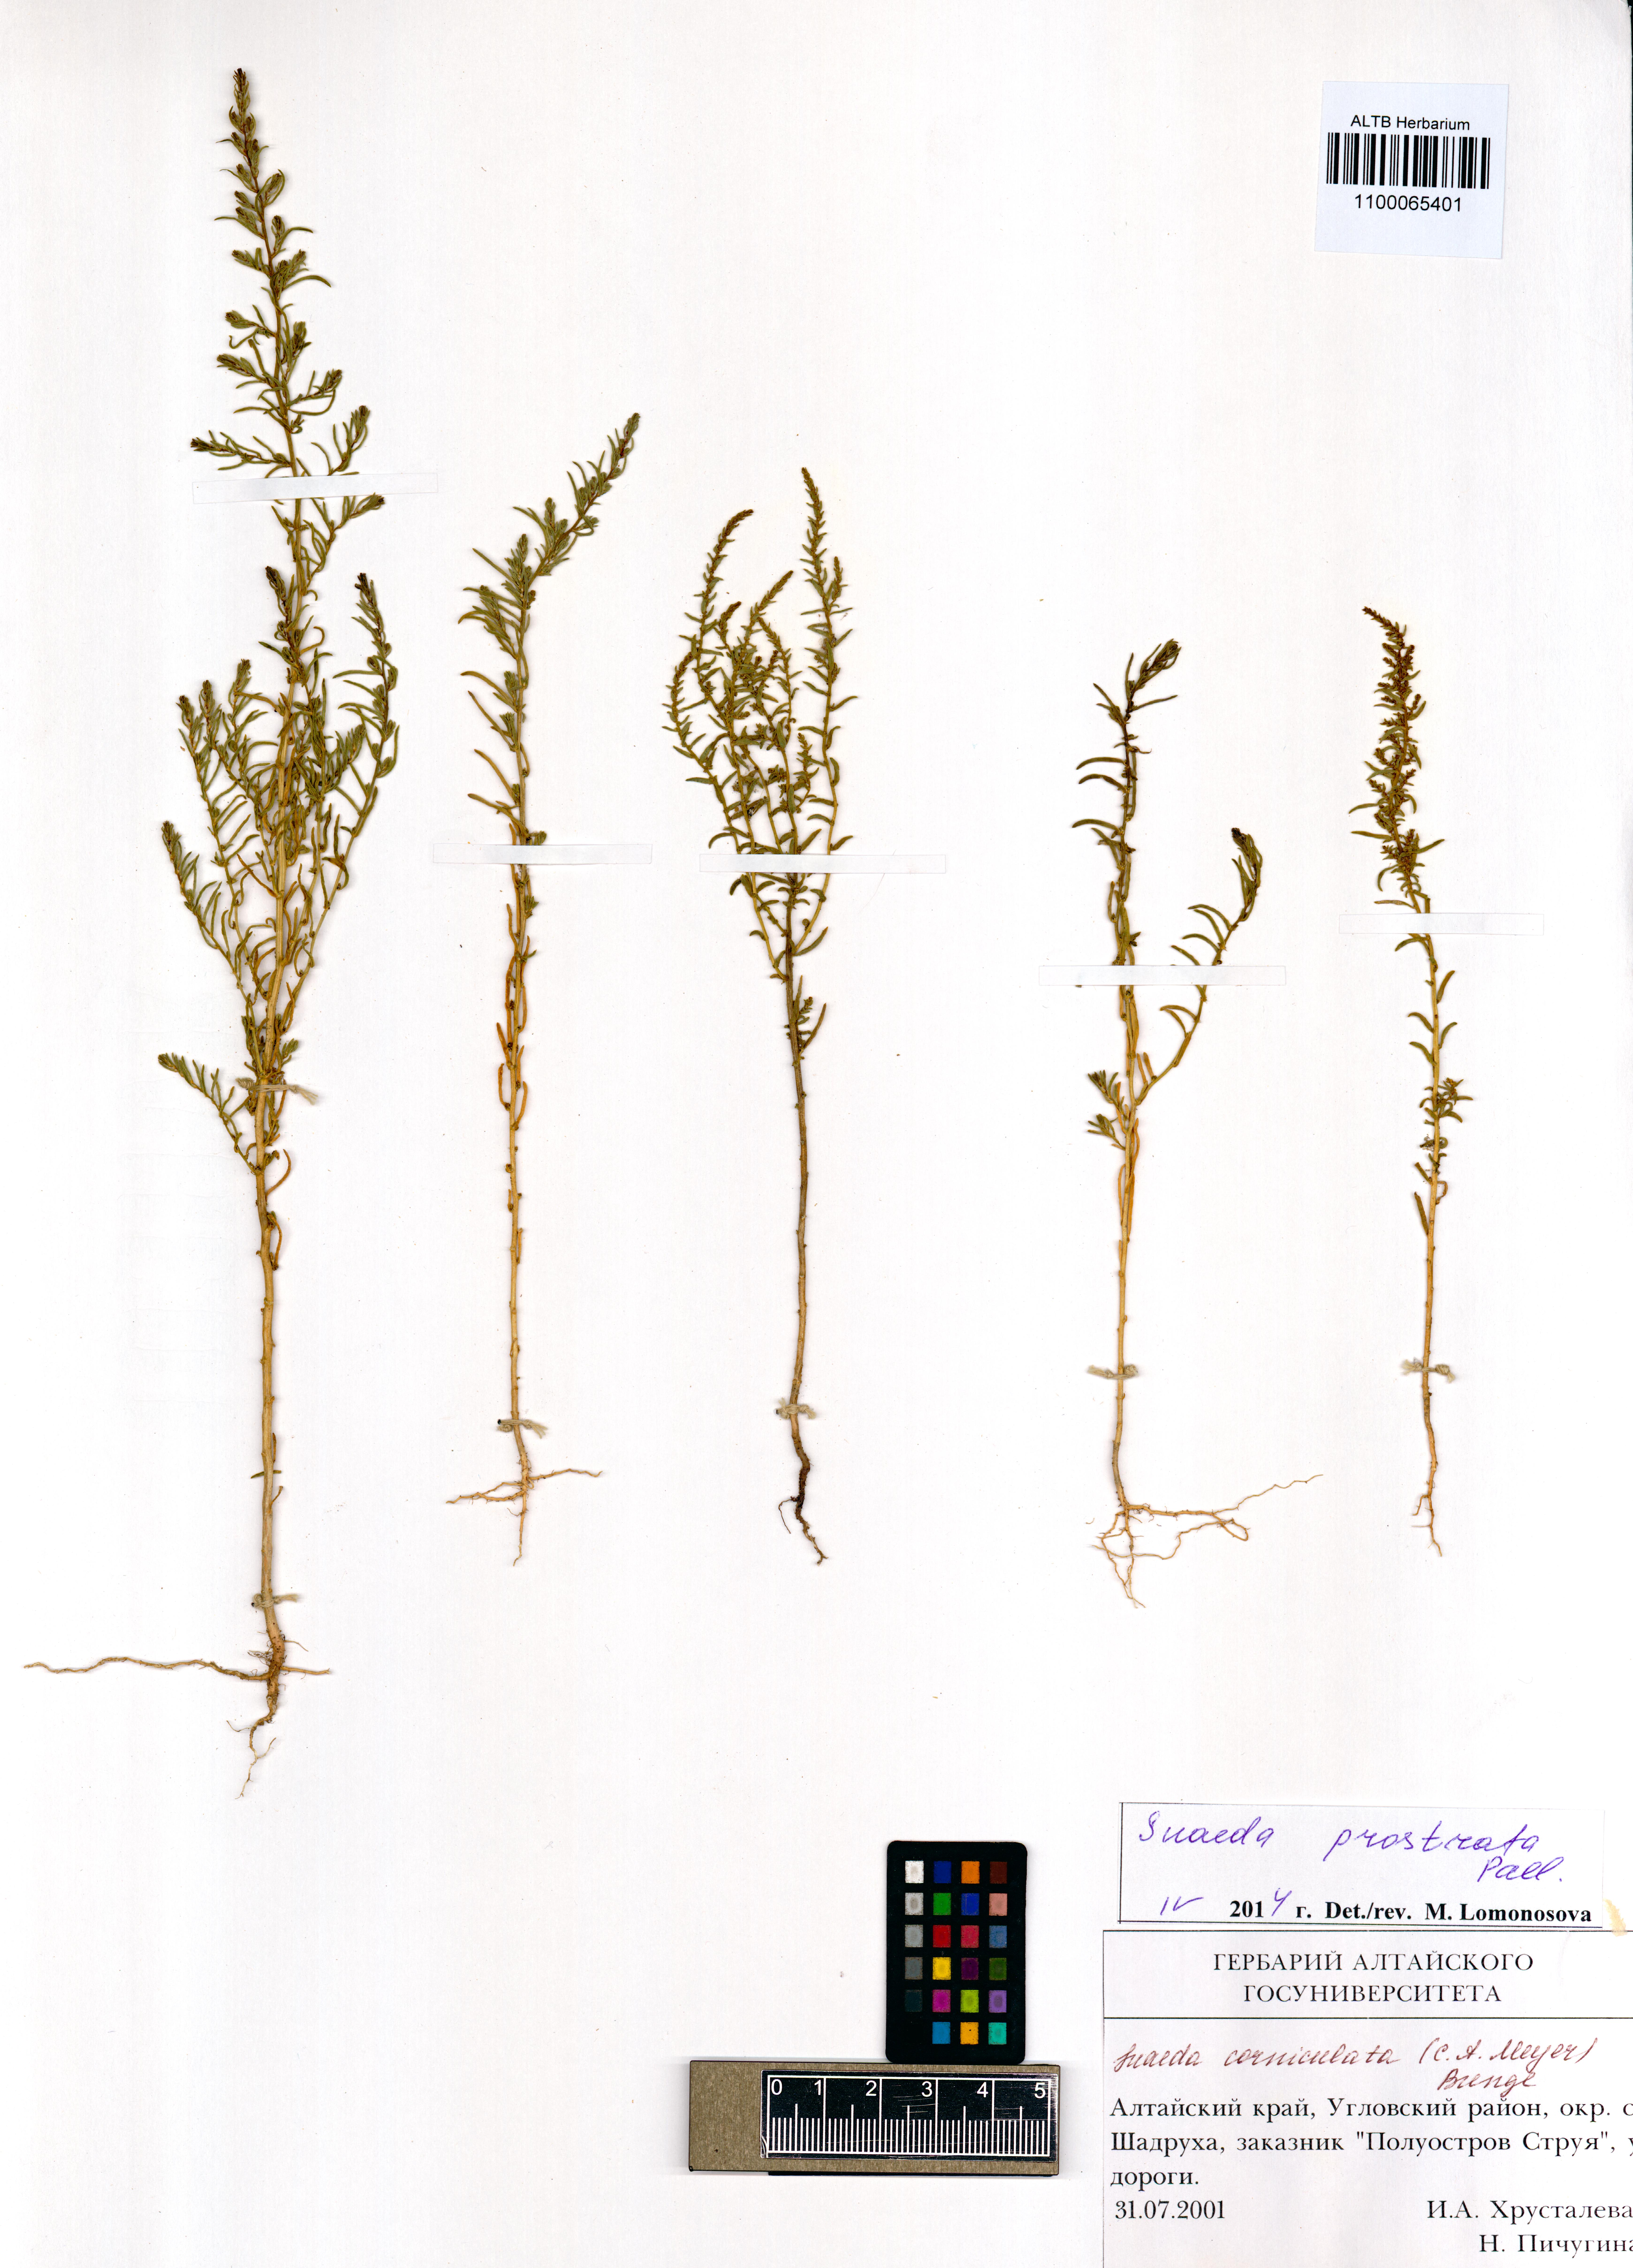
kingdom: Plantae
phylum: Tracheophyta
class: Magnoliopsida
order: Caryophyllales
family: Amaranthaceae
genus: Suaeda
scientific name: Suaeda prostrata
